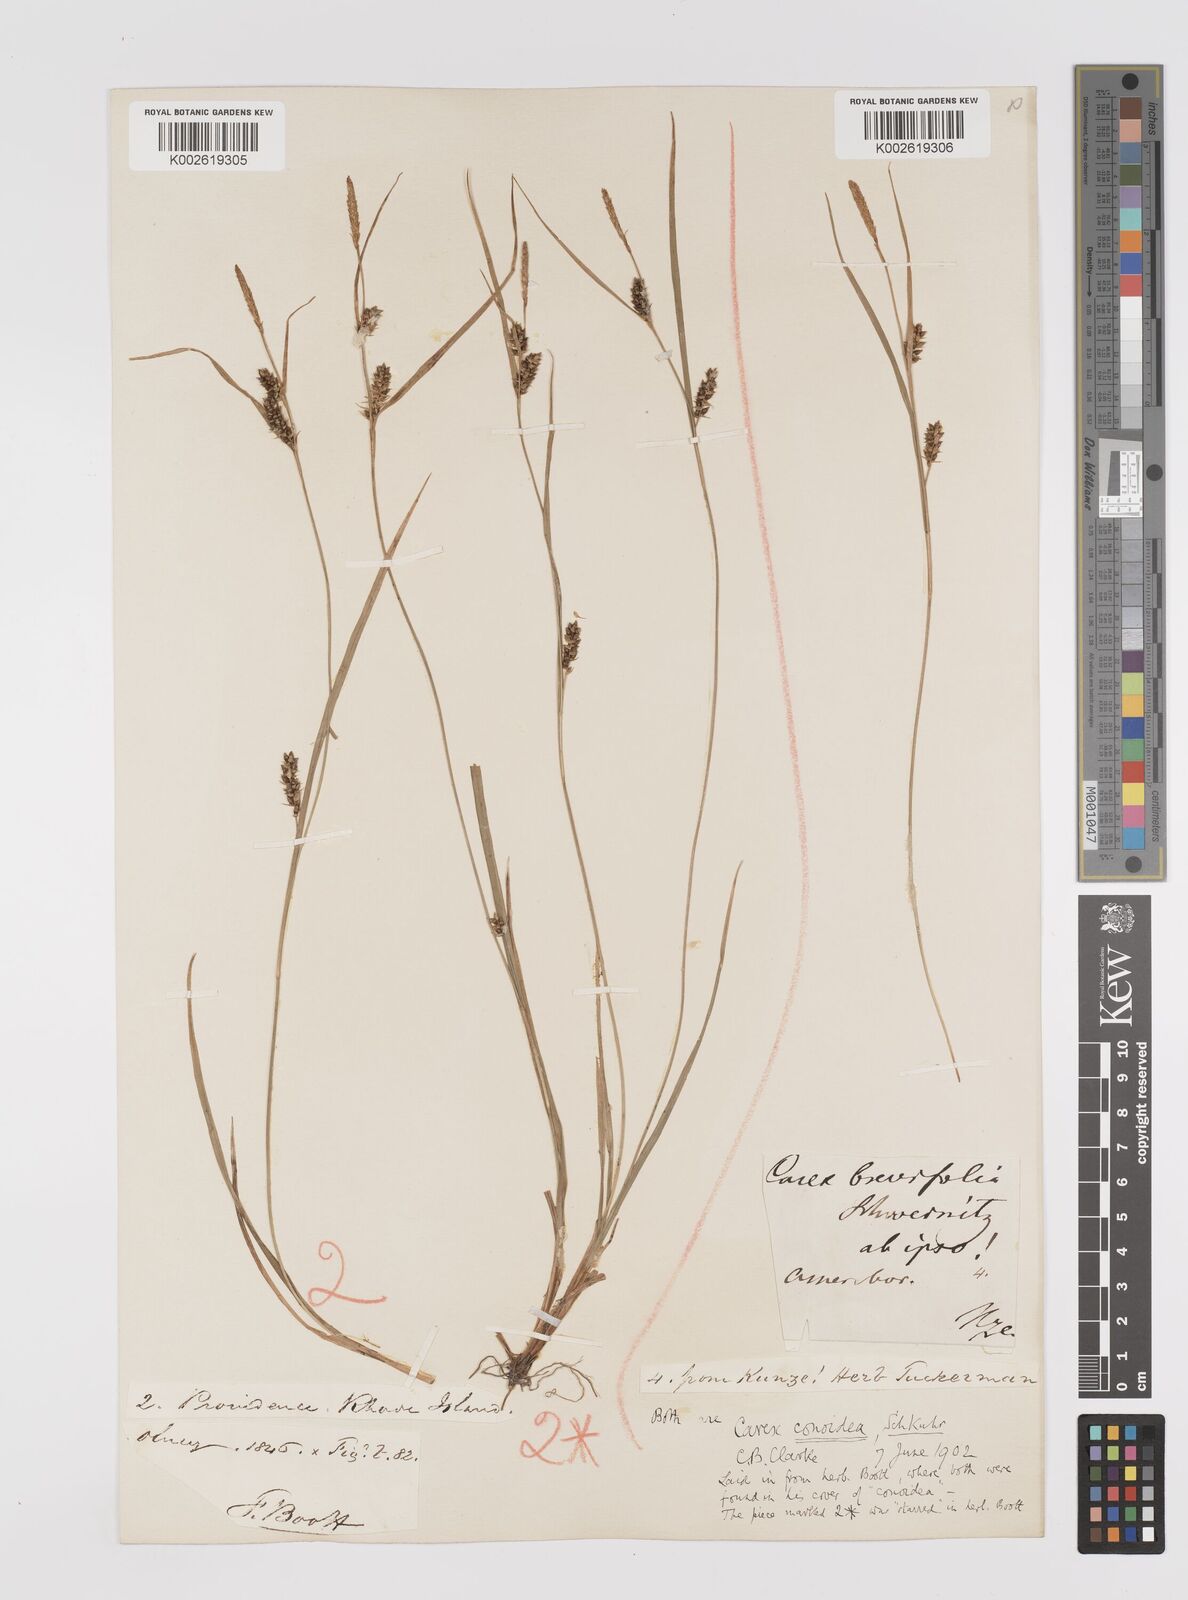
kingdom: Plantae
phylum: Tracheophyta
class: Liliopsida
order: Poales
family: Cyperaceae
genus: Carex
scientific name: Carex conoidea
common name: Cone shaped sedge
